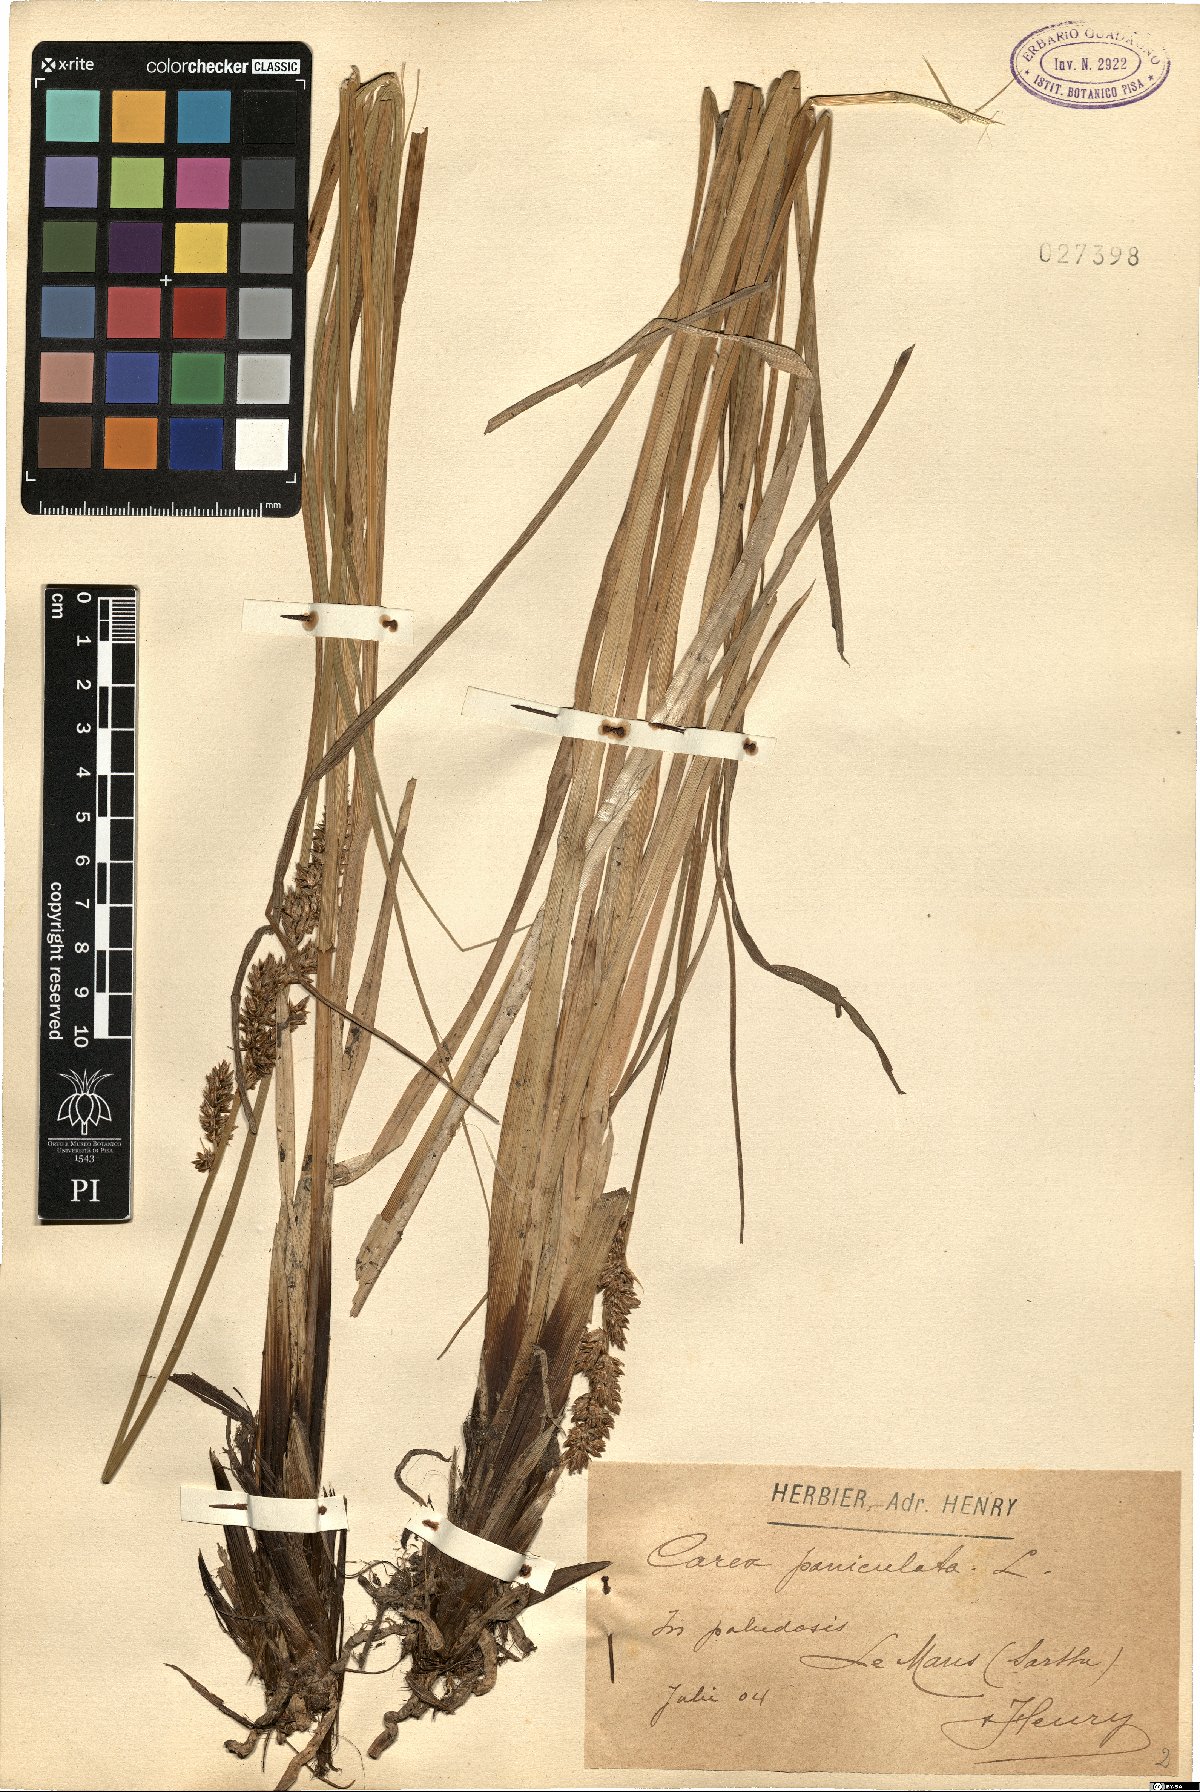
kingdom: Plantae
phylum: Tracheophyta
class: Liliopsida
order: Poales
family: Cyperaceae
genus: Carex
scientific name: Carex paniculata
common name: Greater tussock-sedge
